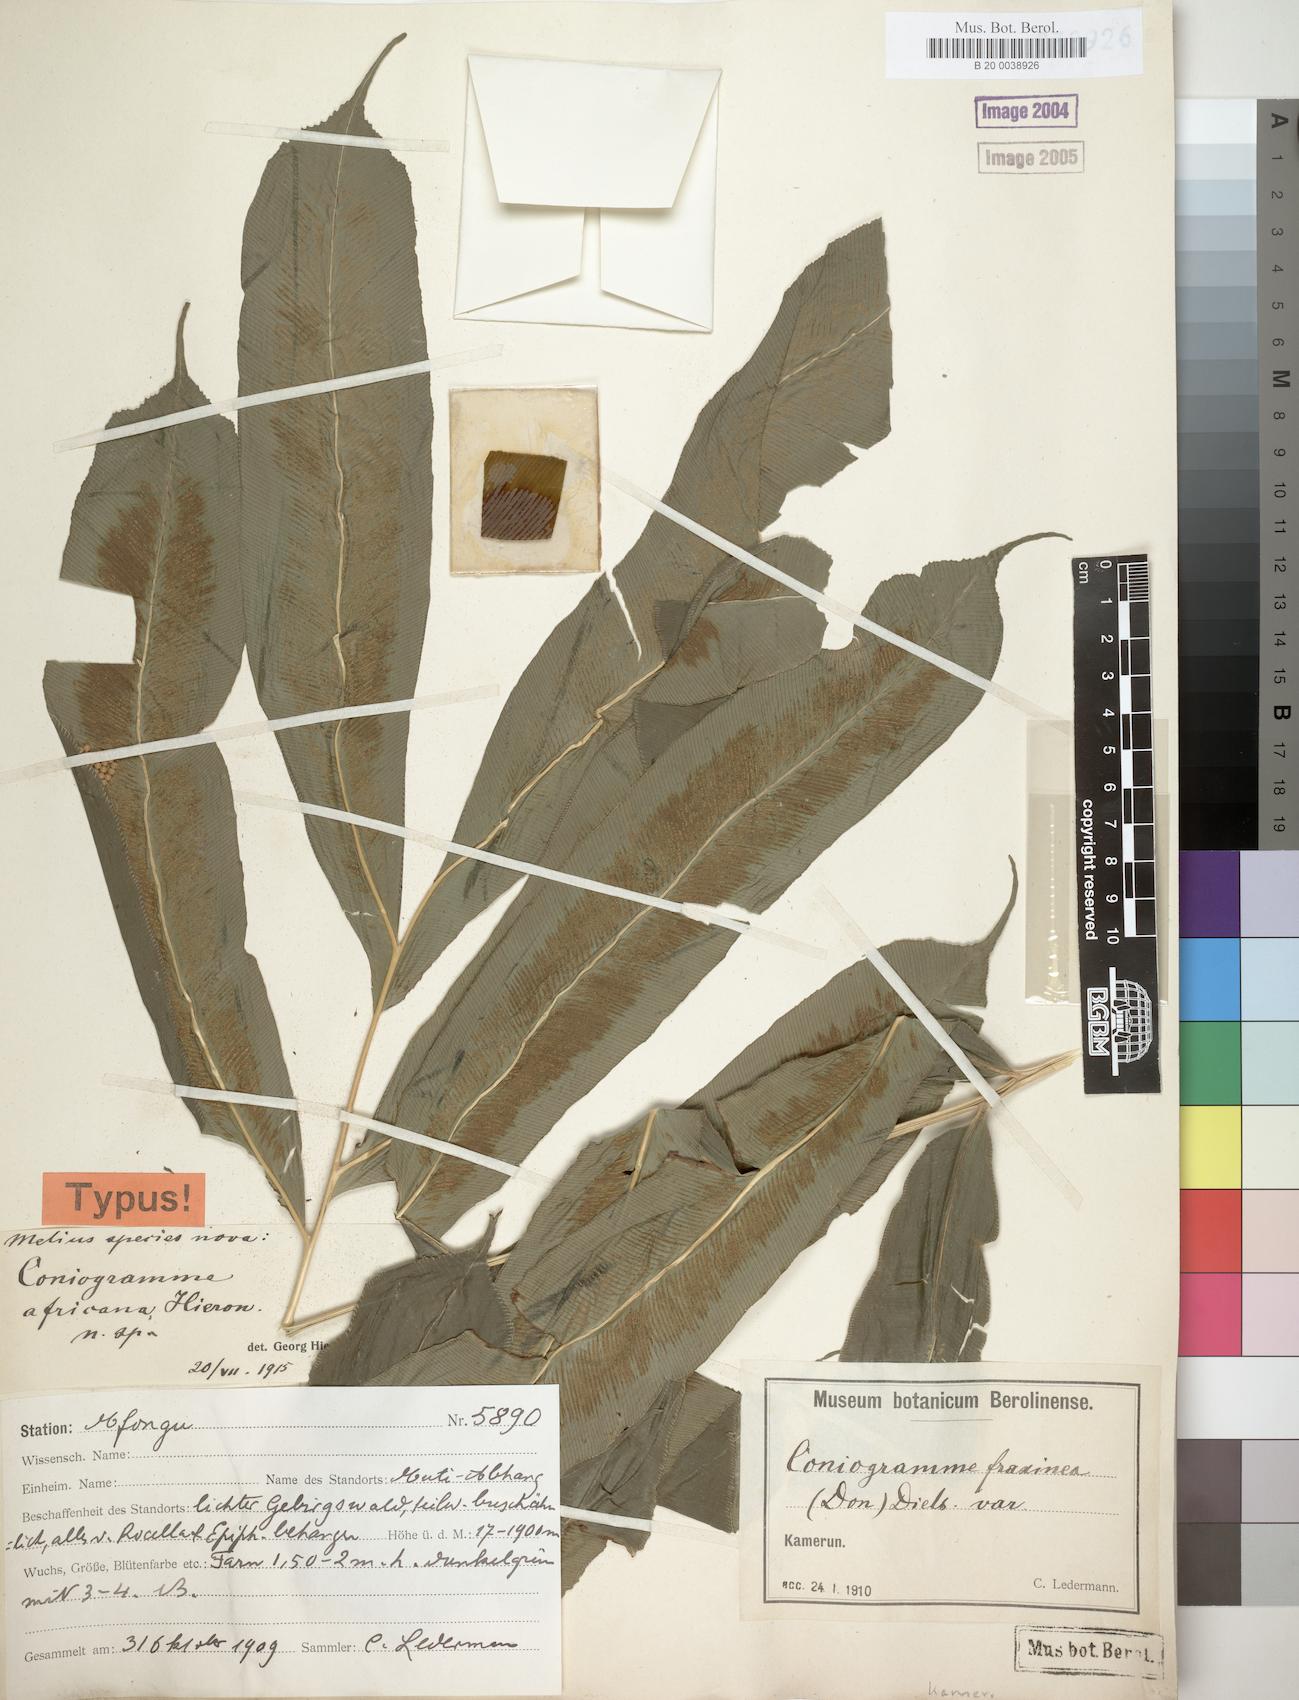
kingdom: Plantae
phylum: Tracheophyta
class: Polypodiopsida
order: Polypodiales
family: Pteridaceae
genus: Coniogramme
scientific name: Coniogramme africana
